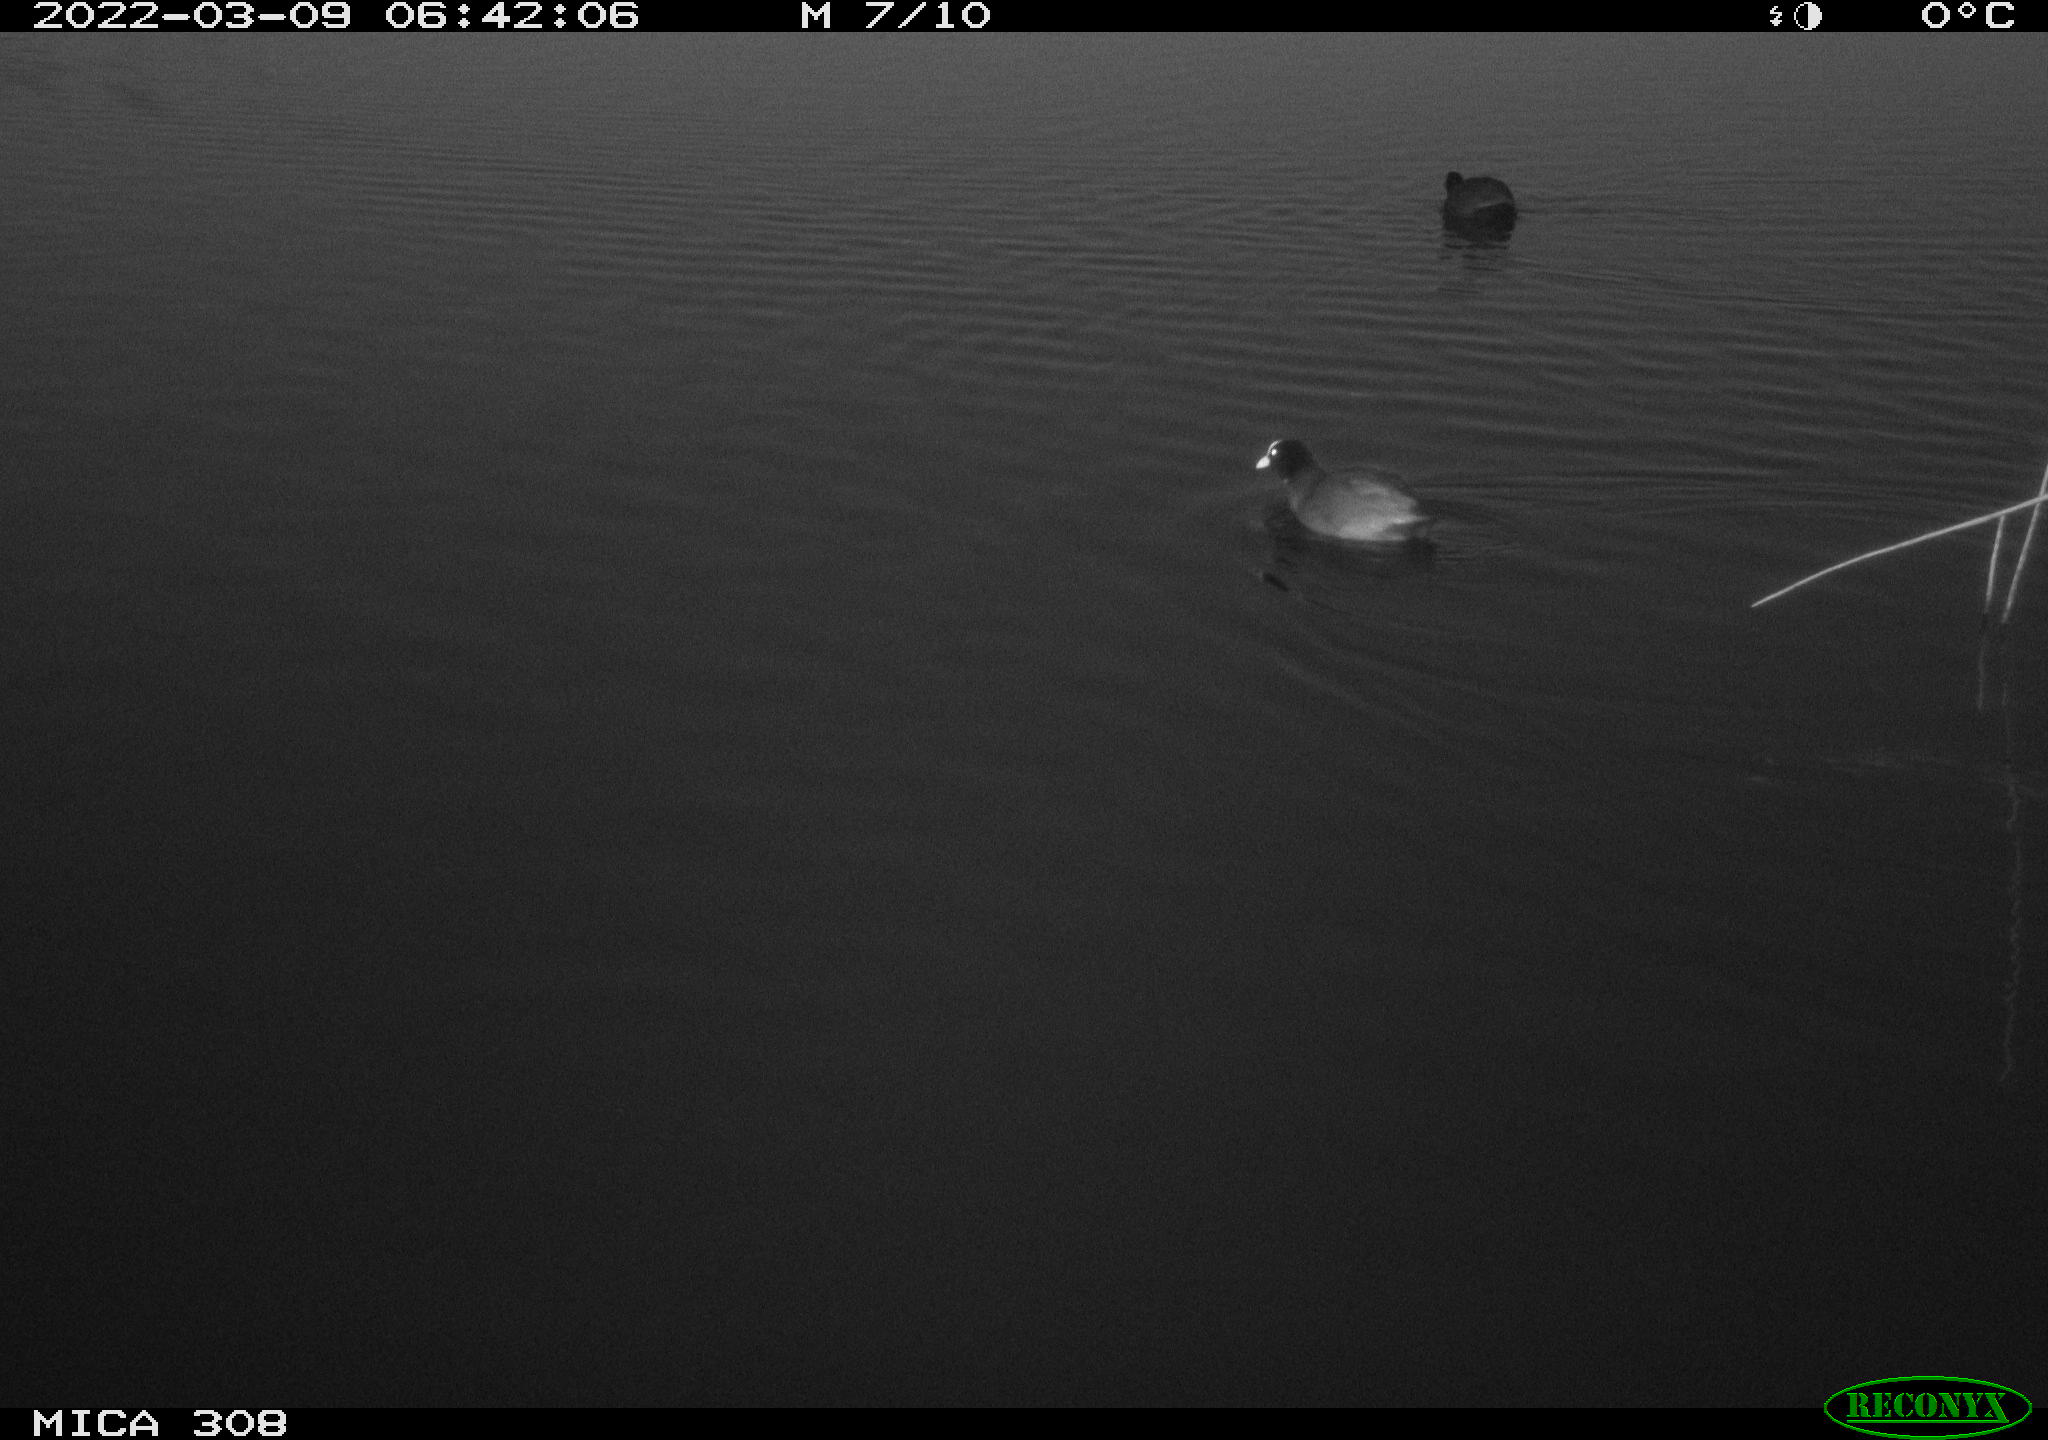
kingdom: Animalia
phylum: Chordata
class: Aves
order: Gruiformes
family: Rallidae
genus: Fulica
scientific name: Fulica atra
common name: Eurasian coot
